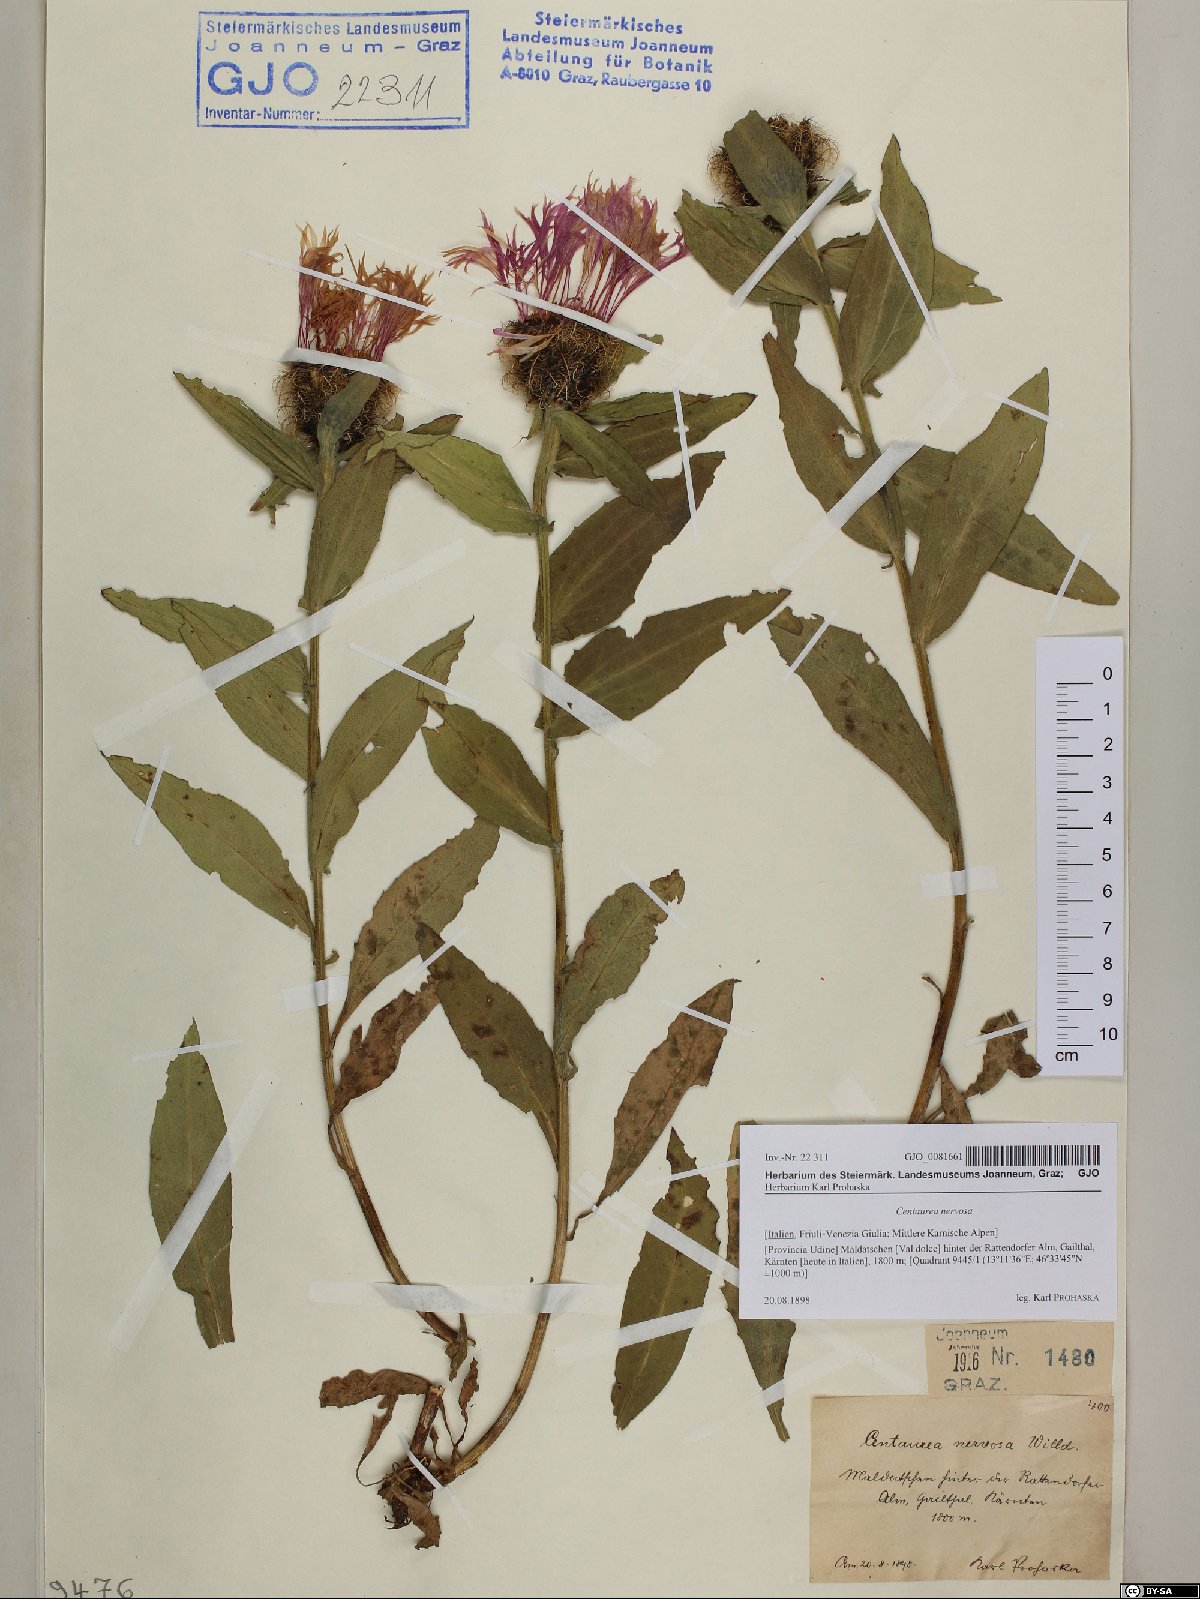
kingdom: Plantae
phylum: Tracheophyta
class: Magnoliopsida
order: Asterales
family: Asteraceae
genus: Centaurea
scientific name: Centaurea nervosa
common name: Singleflower knapweed
